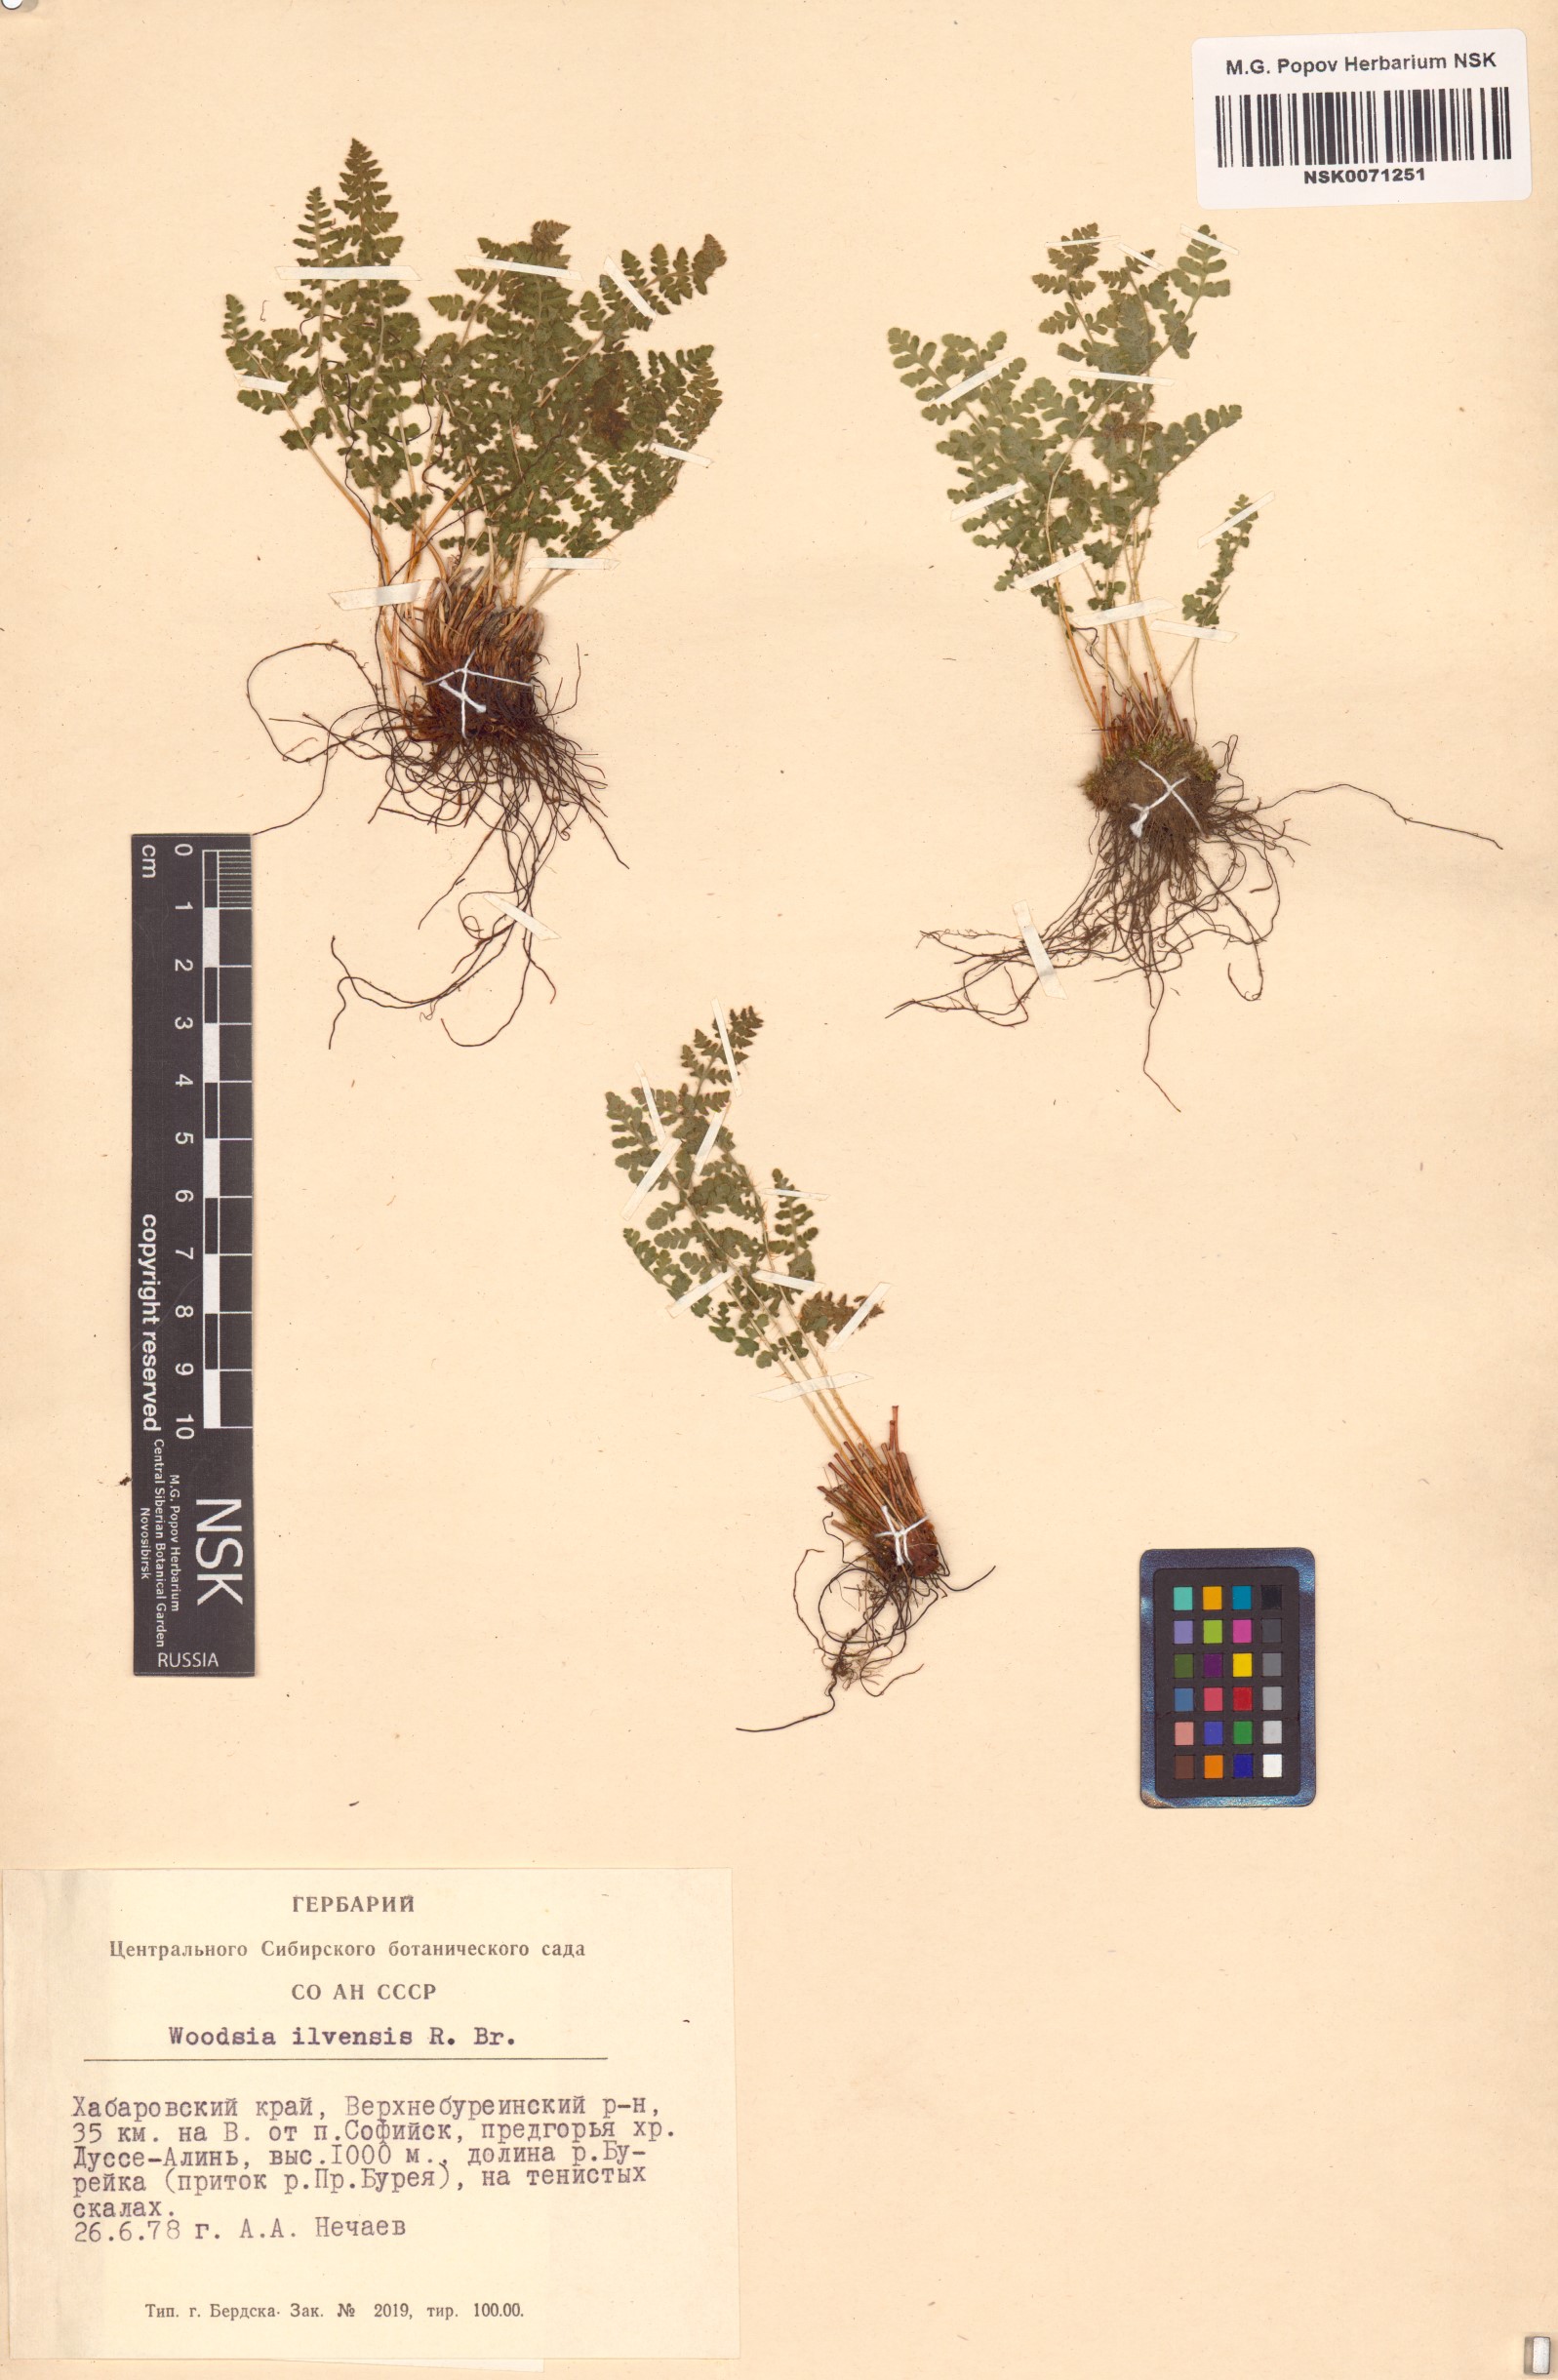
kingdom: Plantae
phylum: Tracheophyta
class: Polypodiopsida
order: Polypodiales
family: Woodsiaceae
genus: Woodsia
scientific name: Woodsia ilvensis
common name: Fragrant woodsia
